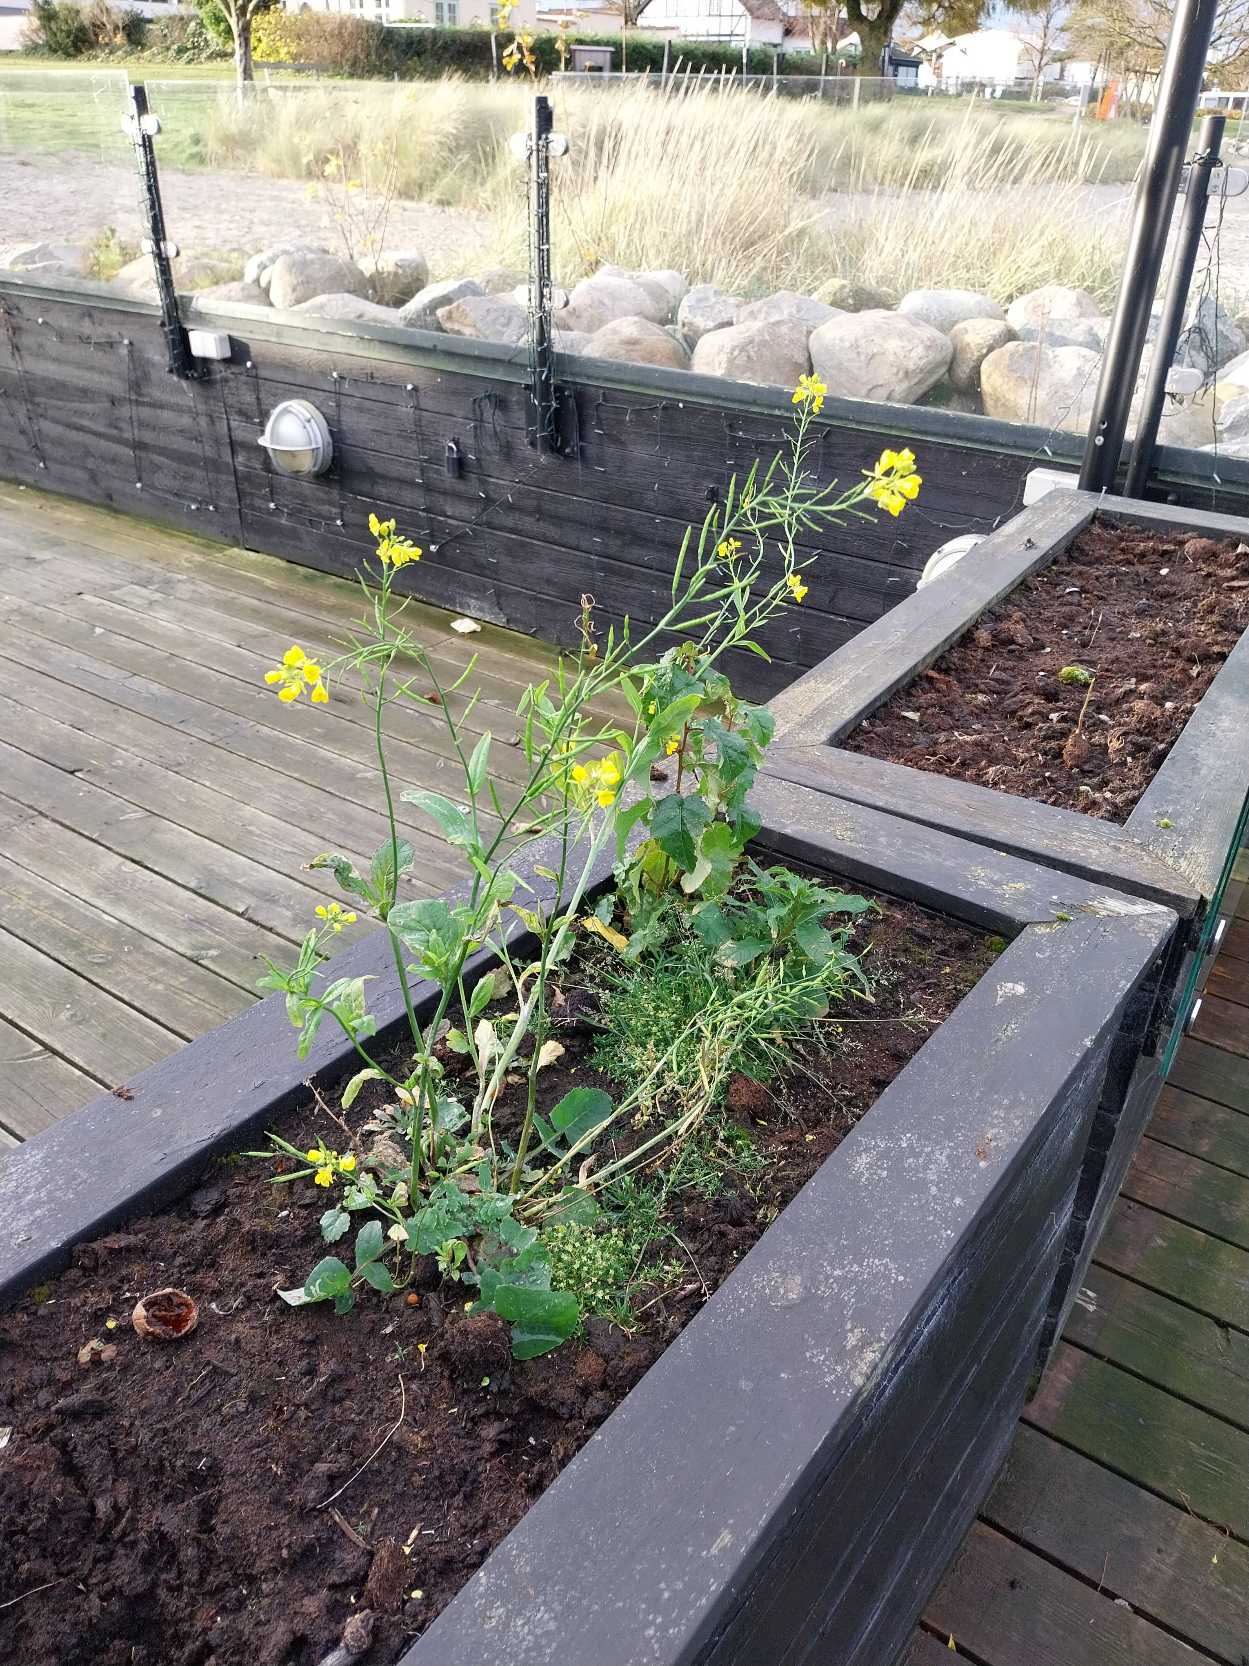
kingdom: Plantae
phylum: Tracheophyta
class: Magnoliopsida
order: Brassicales
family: Brassicaceae
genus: Brassica
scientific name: Brassica rapa
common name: Ager-kål
